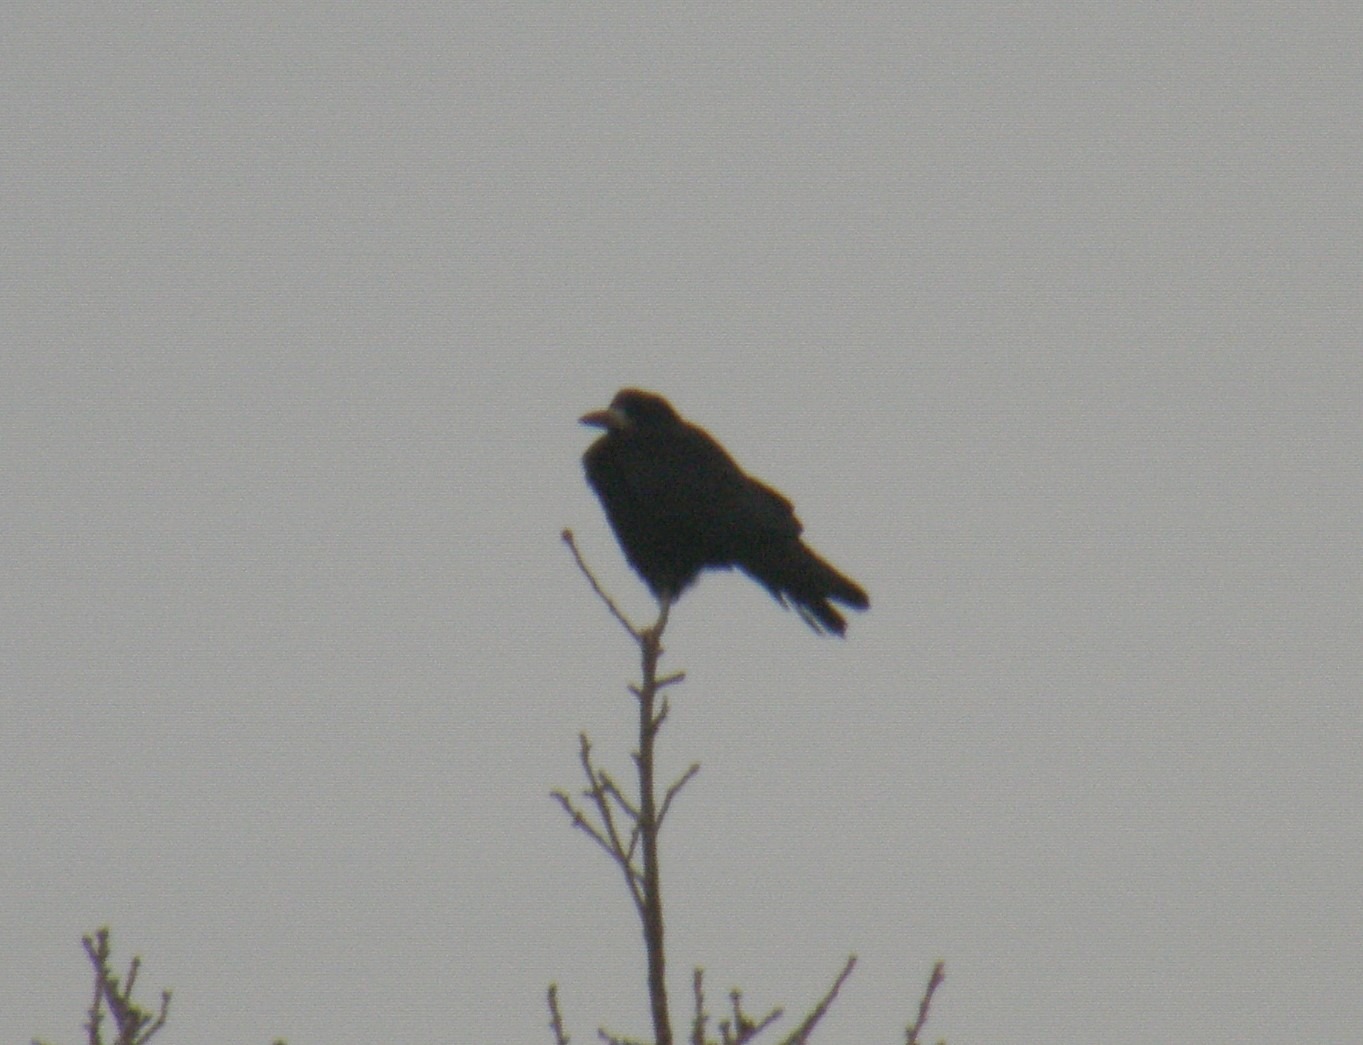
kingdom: Animalia
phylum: Chordata
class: Aves
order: Passeriformes
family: Corvidae
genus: Corvus
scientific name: Corvus frugilegus
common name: Råge
